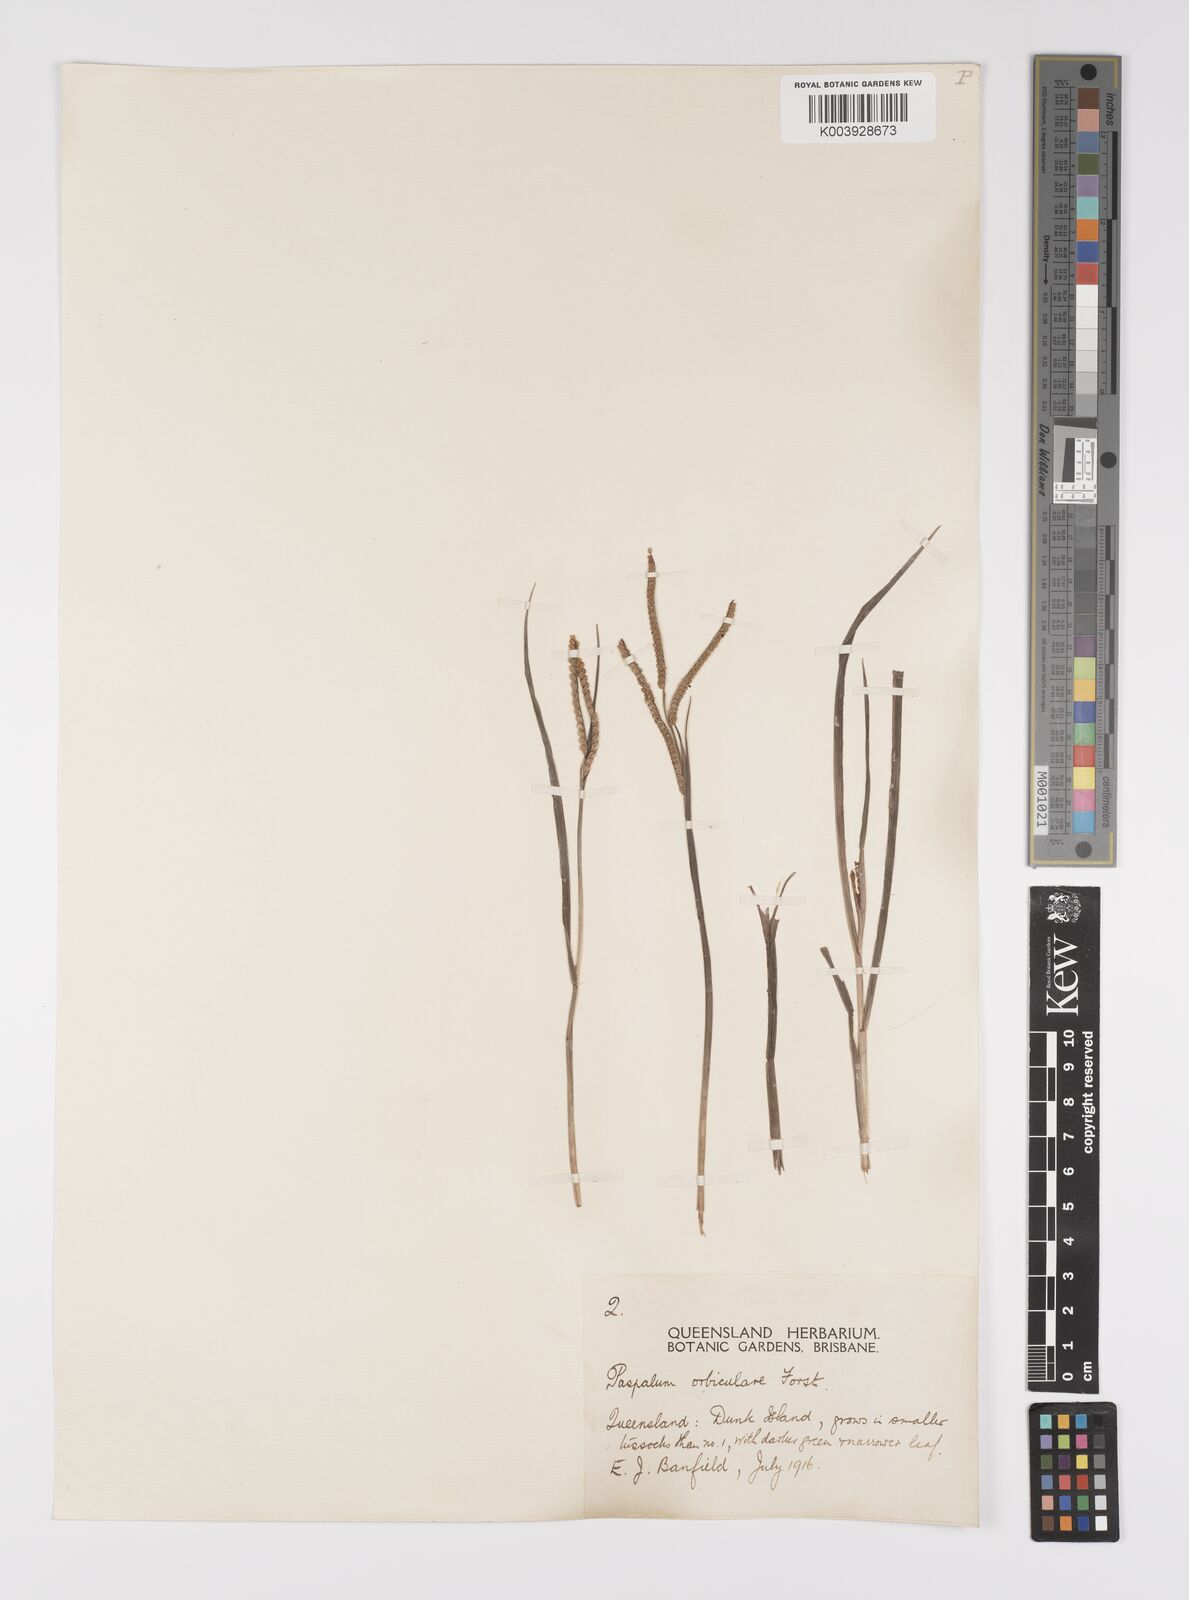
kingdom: Plantae
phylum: Tracheophyta
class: Liliopsida
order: Poales
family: Poaceae
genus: Paspalum
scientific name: Paspalum scrobiculatum
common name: Kodo millet
